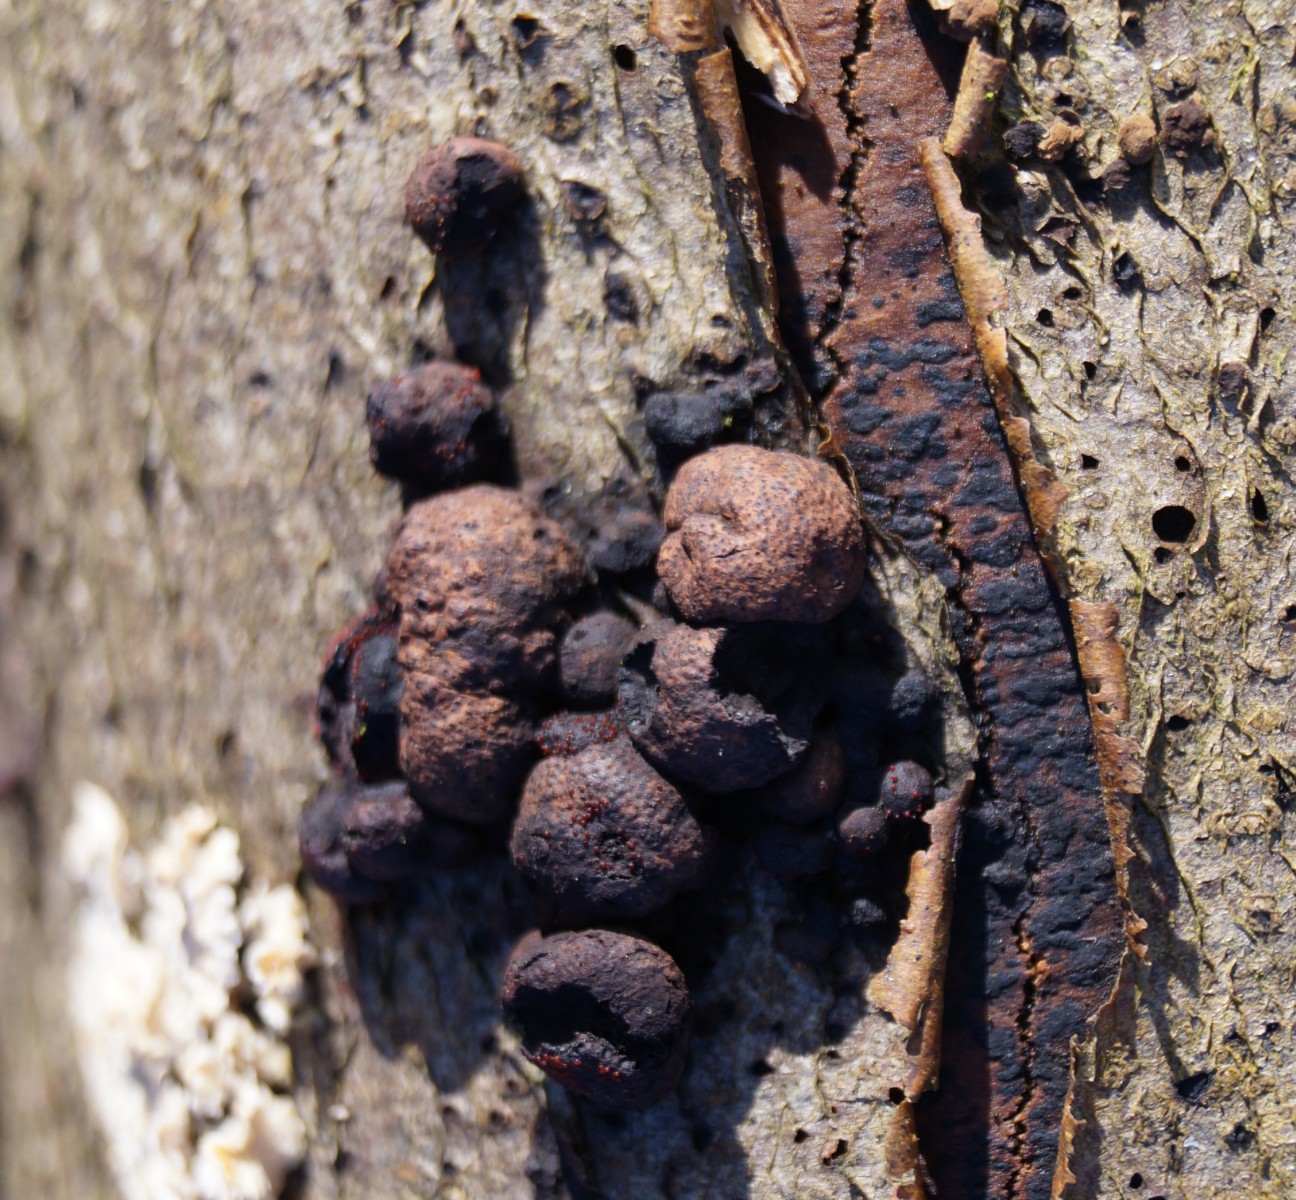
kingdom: Fungi
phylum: Ascomycota
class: Sordariomycetes
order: Hypocreales
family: Nectriaceae
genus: Cosmospora
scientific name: Cosmospora arxii
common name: kuljordbær-cinnobersvamp
